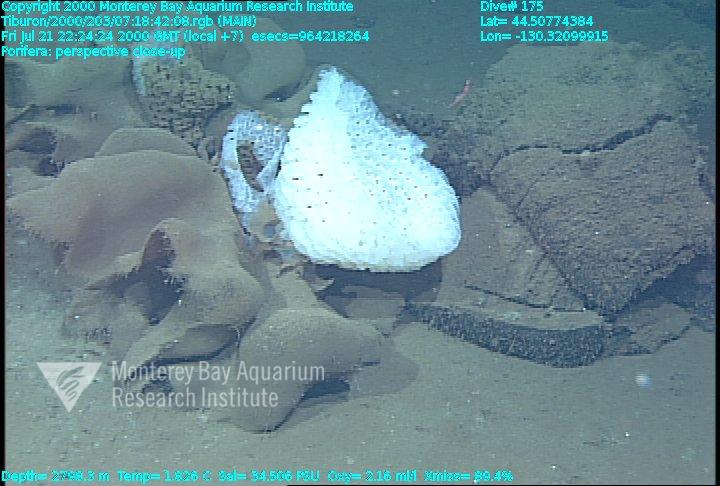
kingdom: Animalia
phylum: Porifera
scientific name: Porifera
